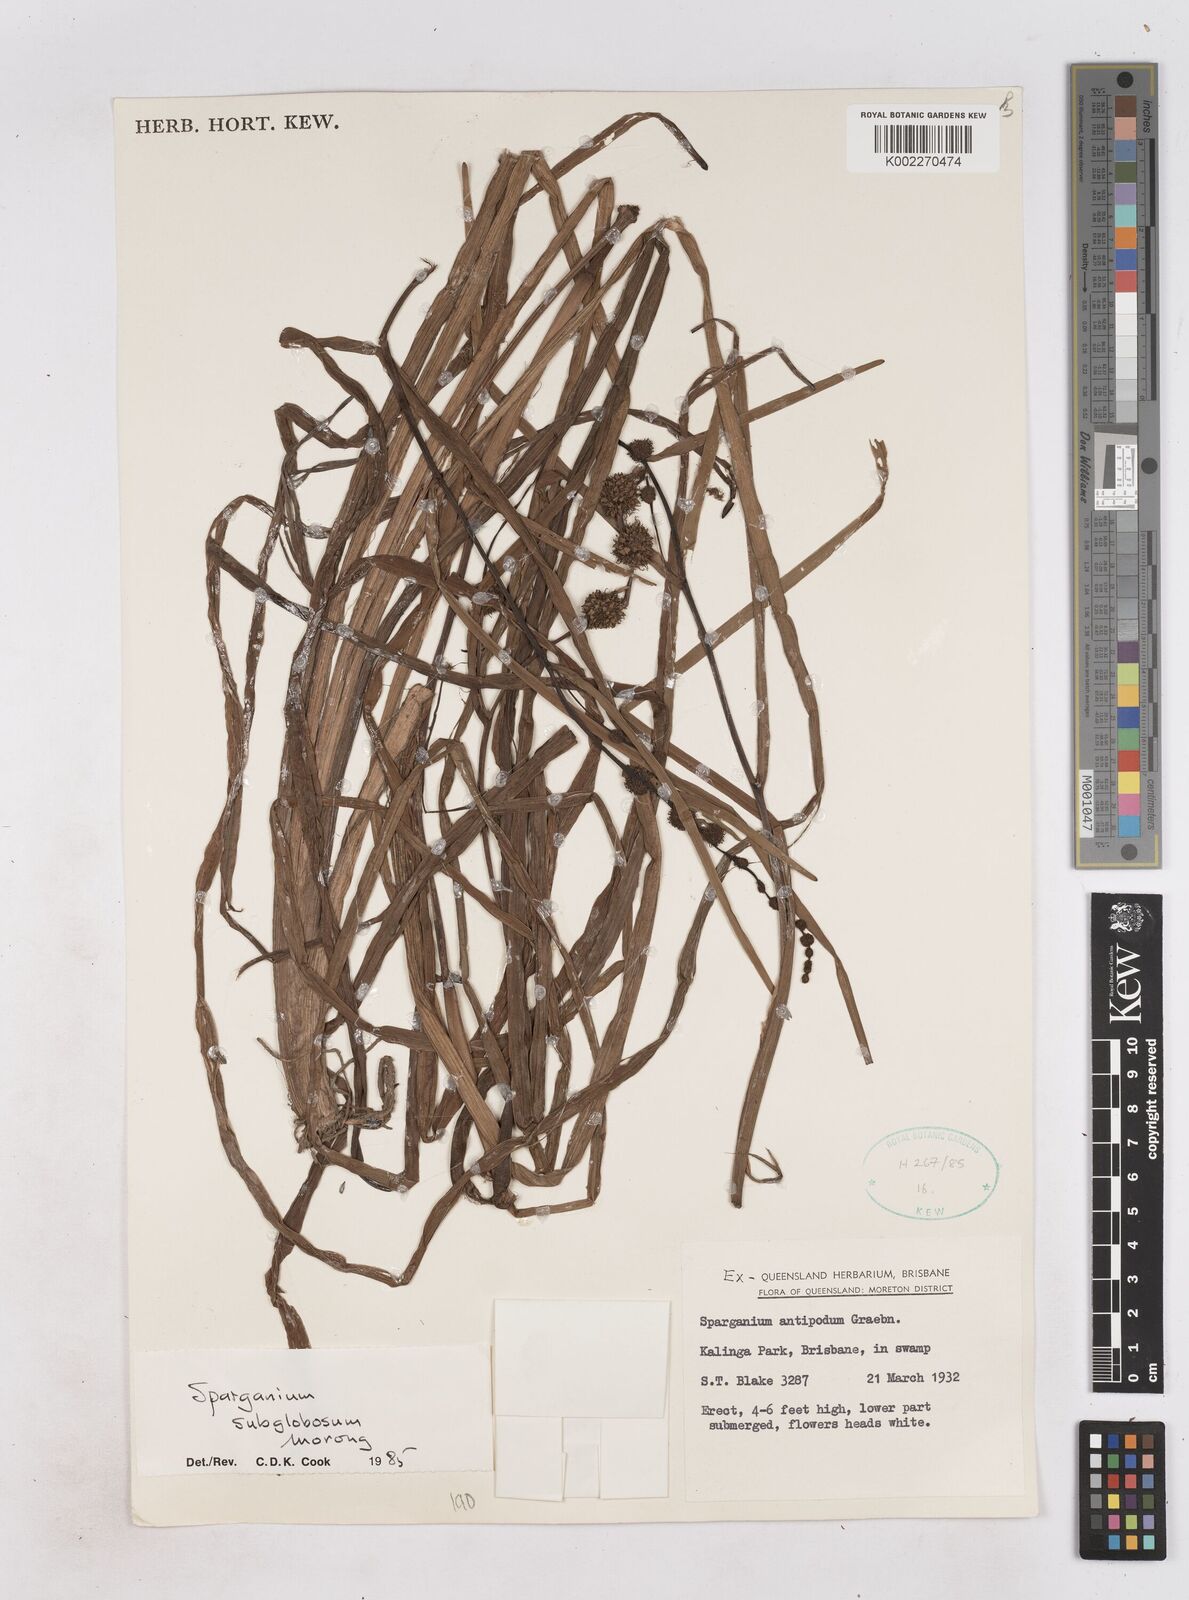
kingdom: Plantae
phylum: Tracheophyta
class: Liliopsida
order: Poales
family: Typhaceae
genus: Sparganium
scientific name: Sparganium subglobosum
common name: Burr­-reed
